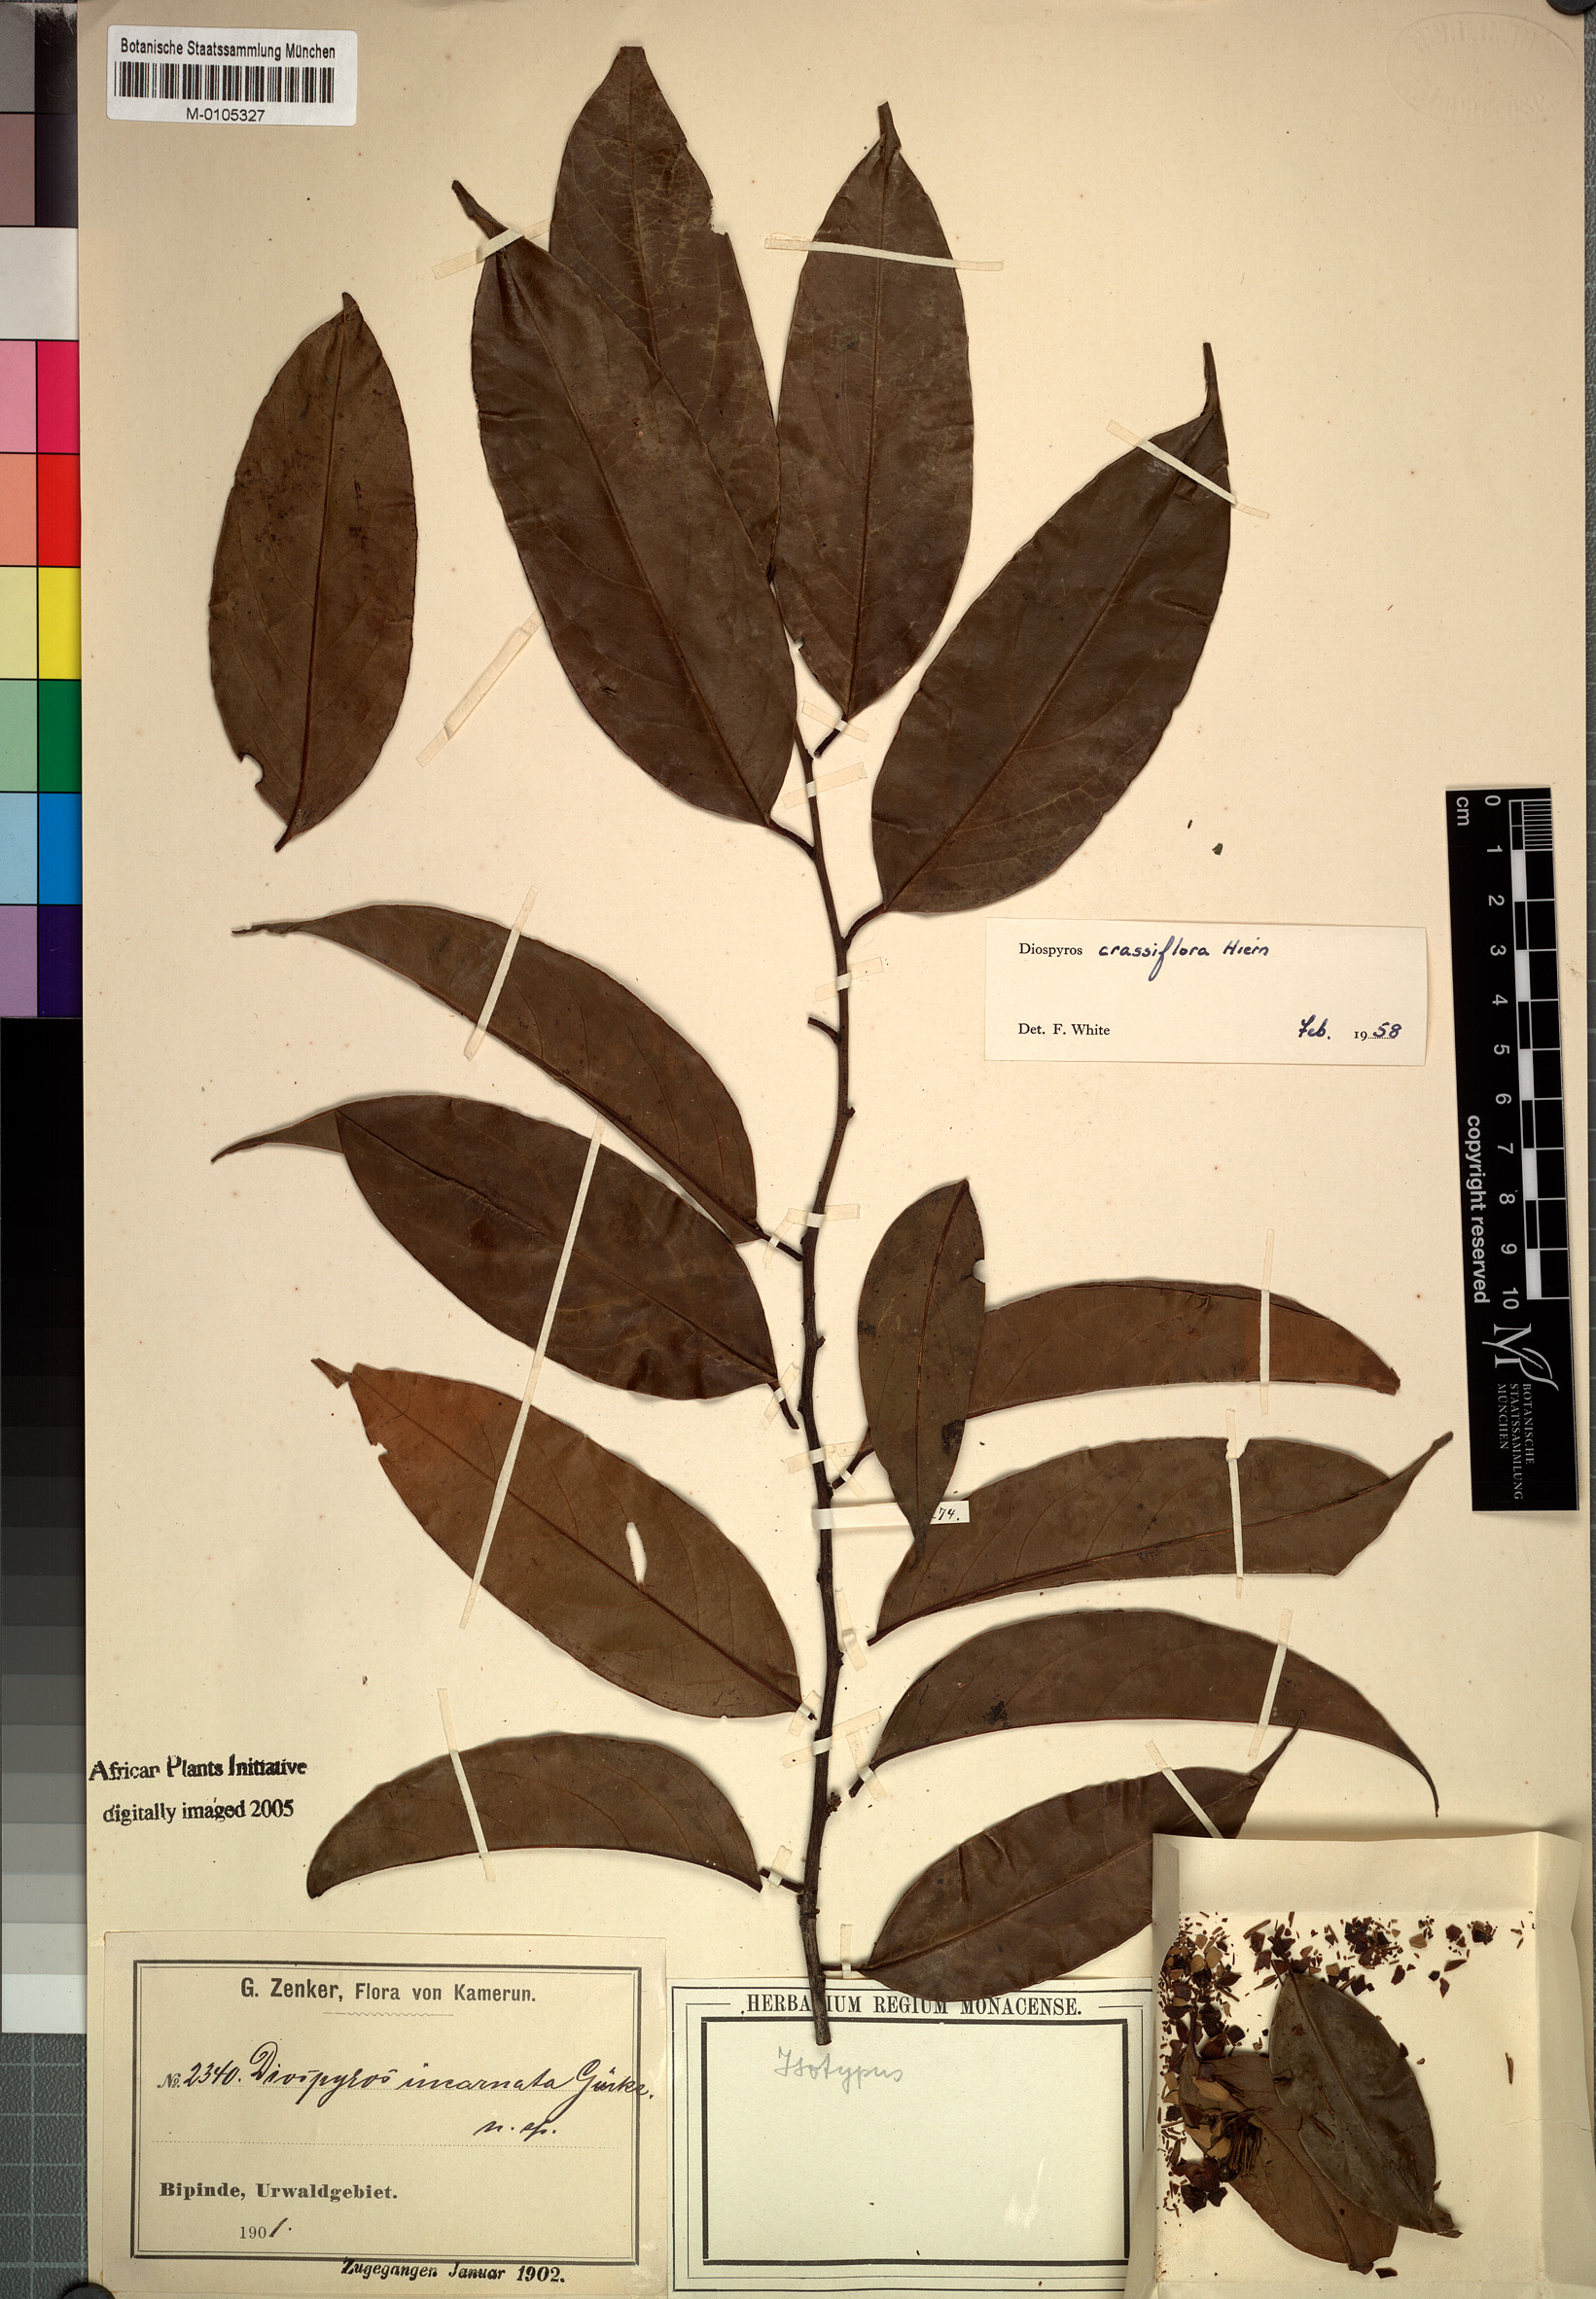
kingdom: Plantae
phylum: Tracheophyta
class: Magnoliopsida
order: Ericales
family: Ebenaceae
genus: Diospyros
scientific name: Diospyros crassiflora
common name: Ebony
